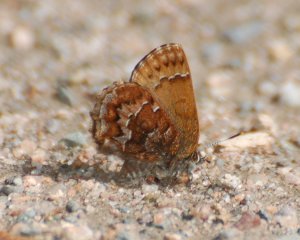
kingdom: Animalia
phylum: Arthropoda
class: Insecta
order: Lepidoptera
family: Lycaenidae
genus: Incisalia
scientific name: Incisalia niphon
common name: Eastern Pine Elfin
